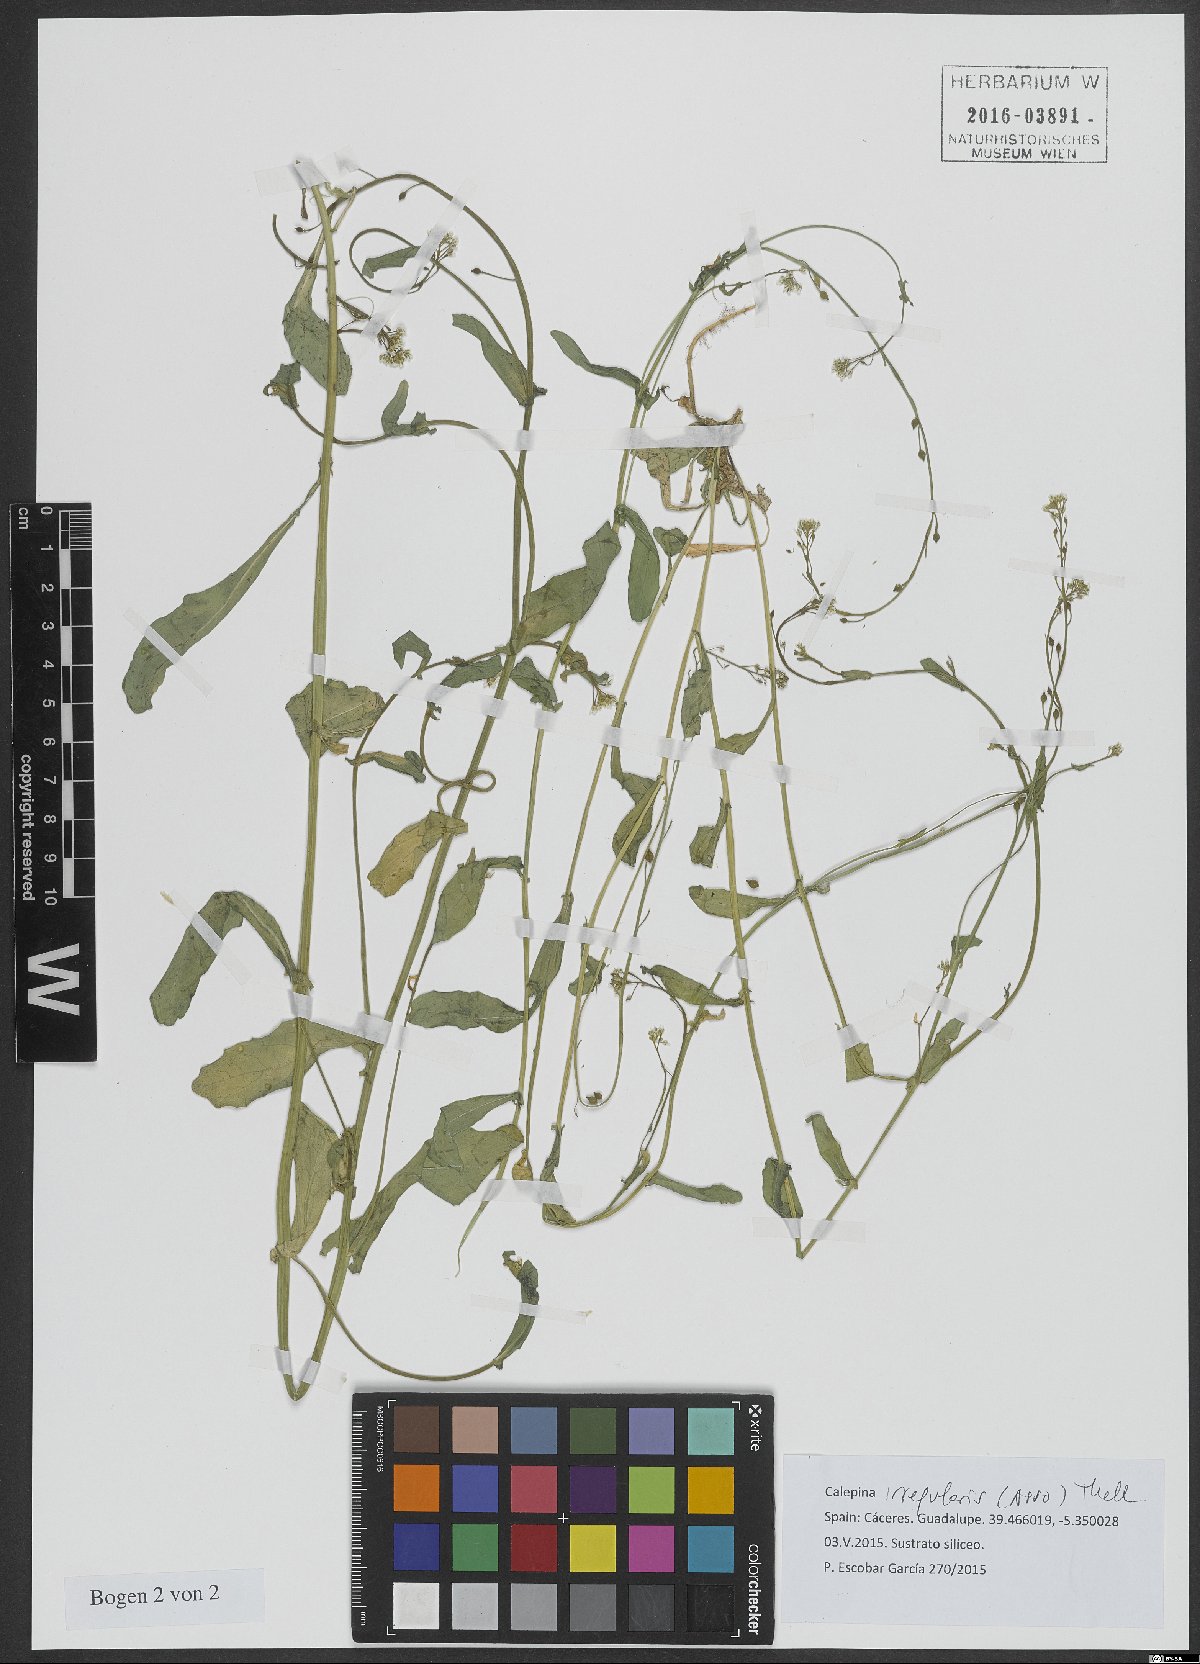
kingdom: Plantae
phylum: Tracheophyta
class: Magnoliopsida
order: Brassicales
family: Brassicaceae
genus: Calepina
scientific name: Calepina irregularis
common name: White ballmustard
